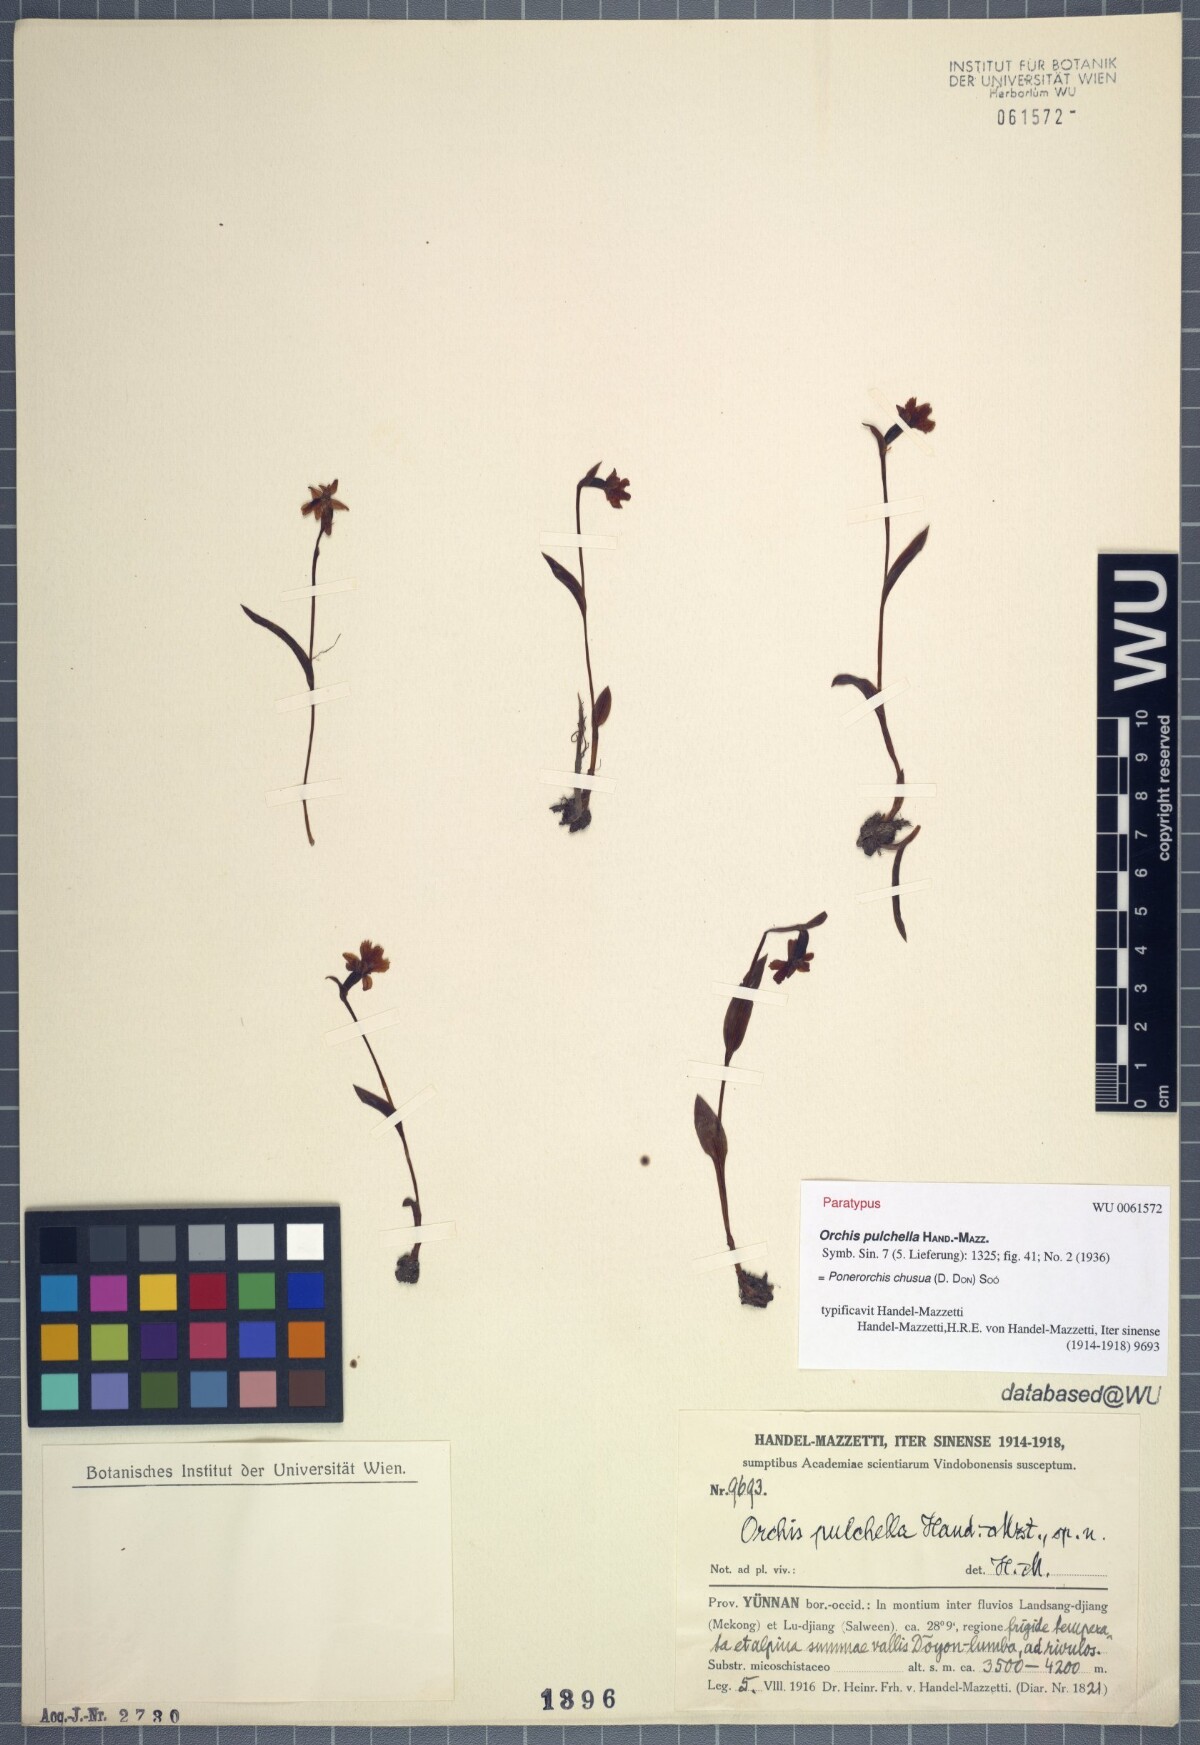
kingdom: Plantae
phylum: Tracheophyta
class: Liliopsida
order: Asparagales
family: Orchidaceae
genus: Hemipilia
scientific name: Hemipilia chusua
